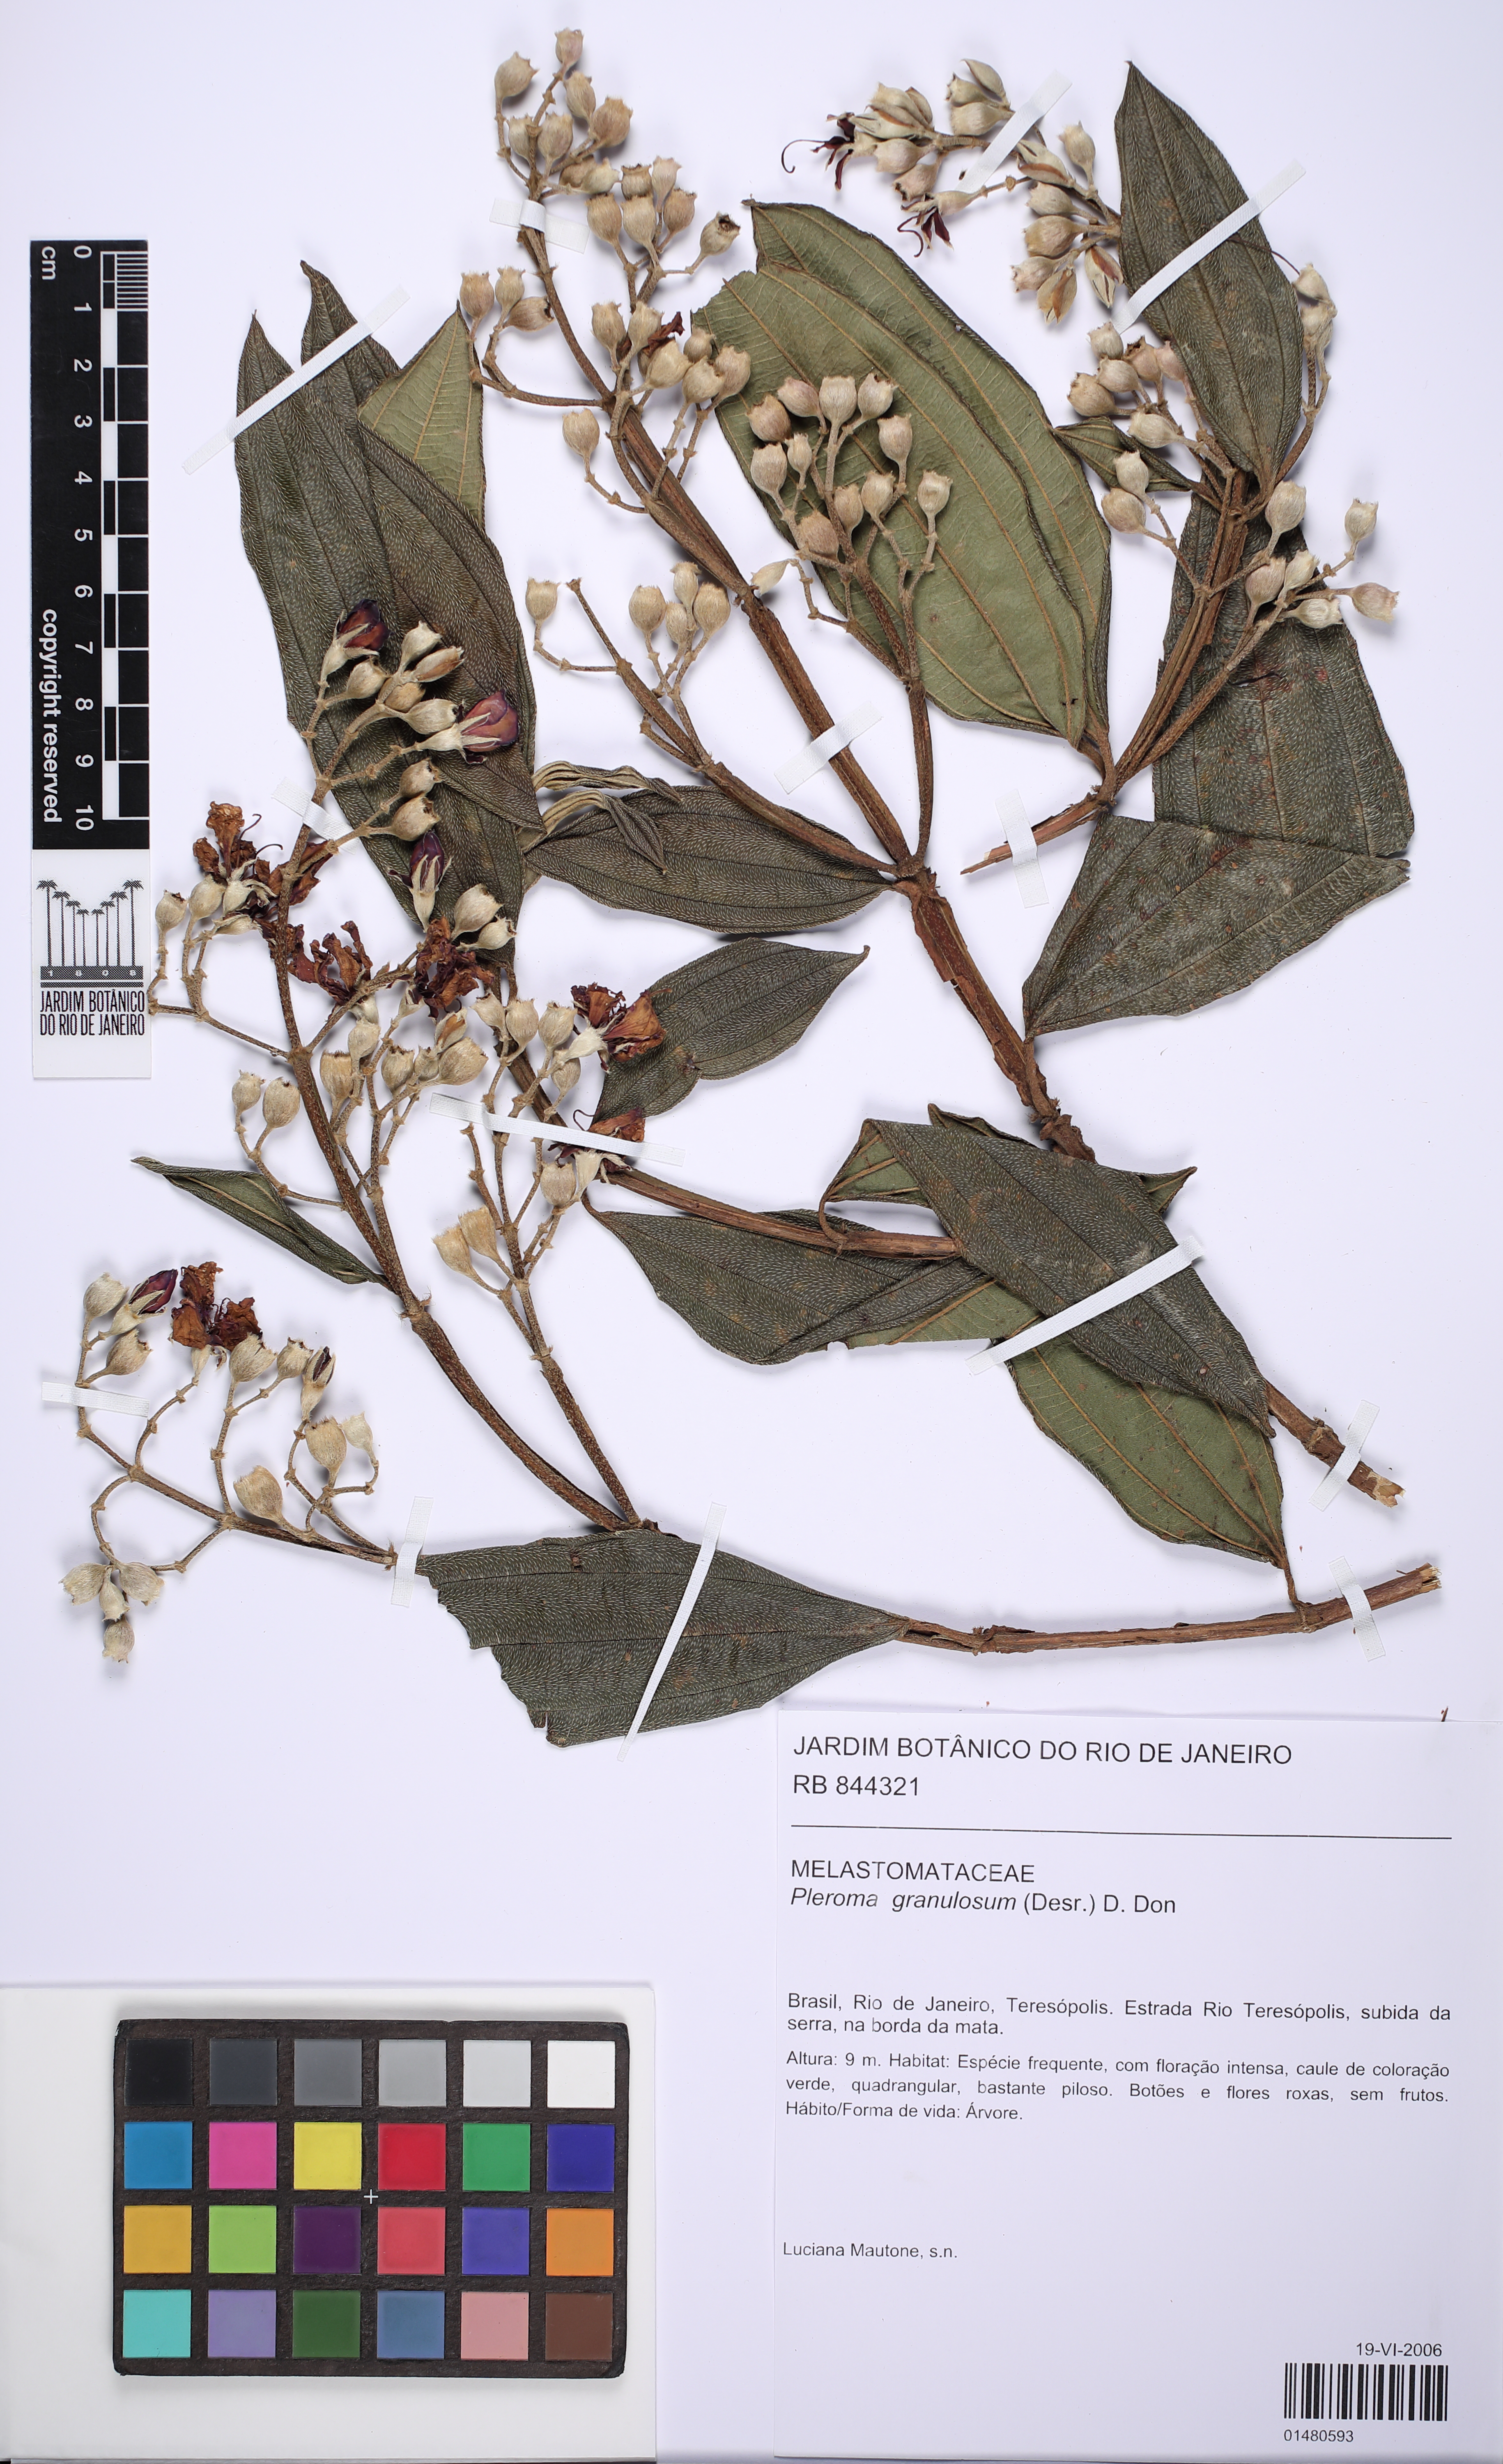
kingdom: Plantae
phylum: Tracheophyta
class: Magnoliopsida
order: Myrtales
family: Melastomataceae
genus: Pleroma
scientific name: Pleroma granulosum
